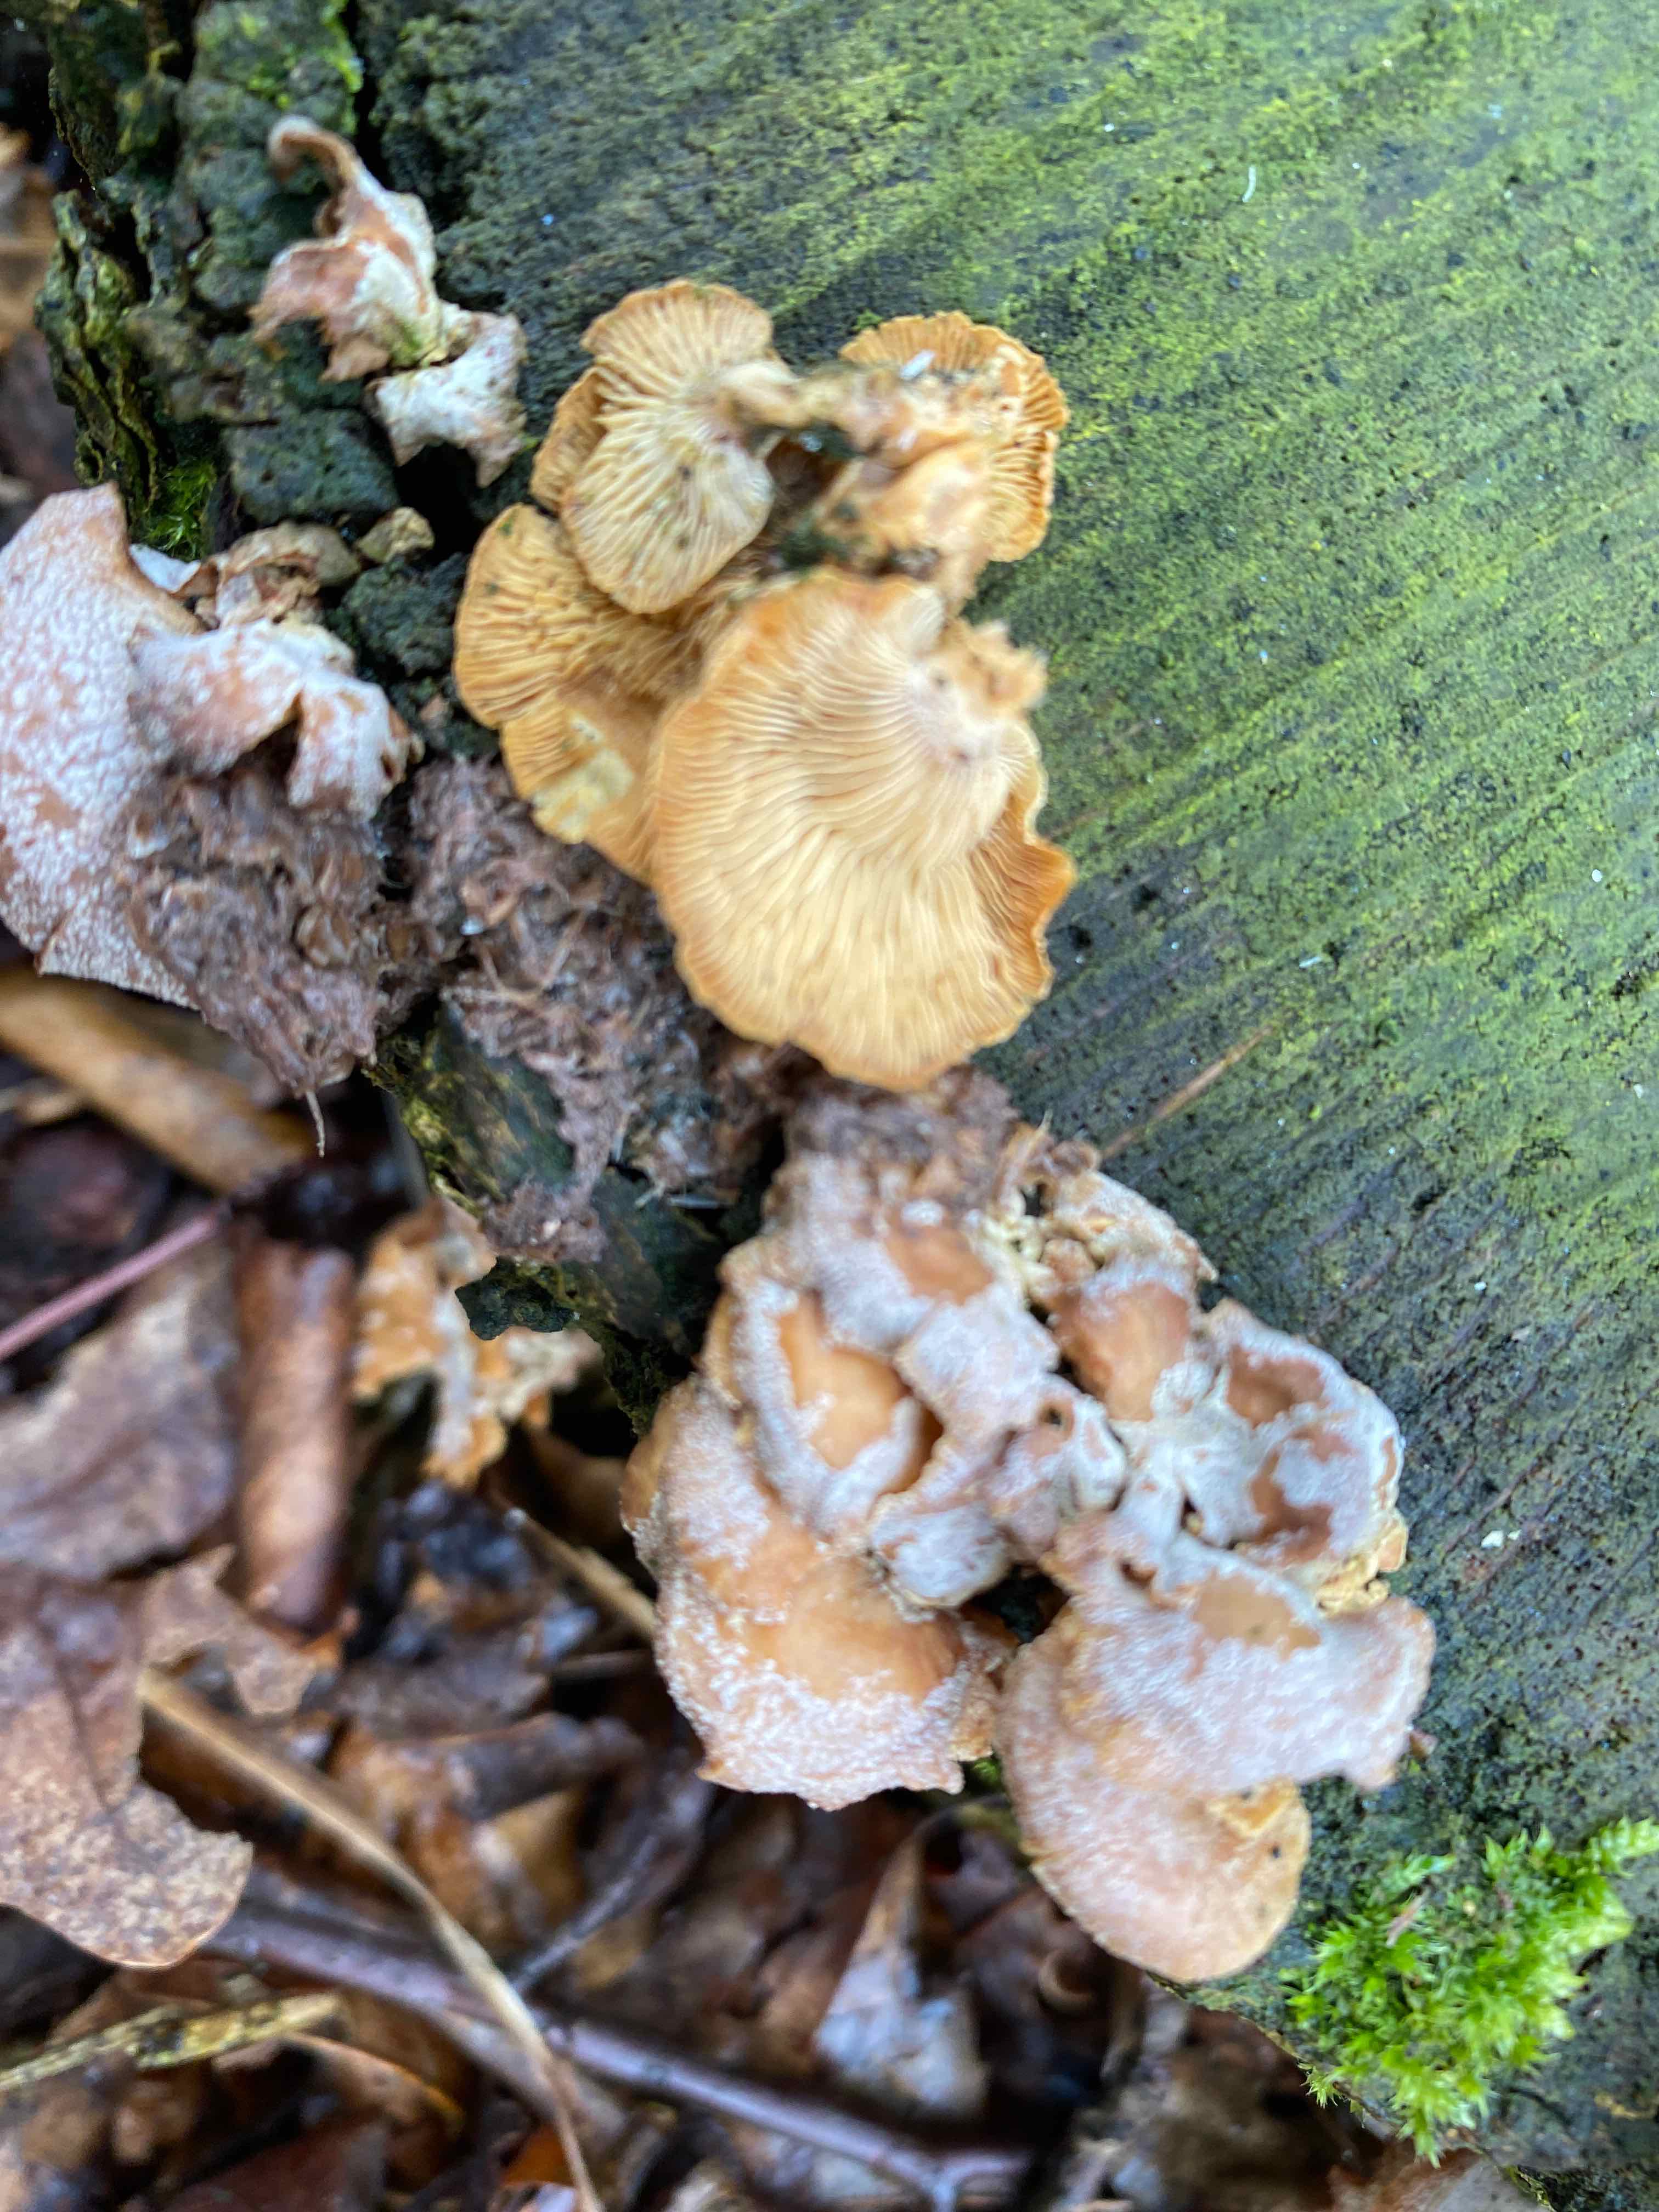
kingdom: Fungi
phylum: Basidiomycota
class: Agaricomycetes
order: Agaricales
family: Mycenaceae
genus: Panellus
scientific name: Panellus stipticus
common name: kliddet epaulethat
